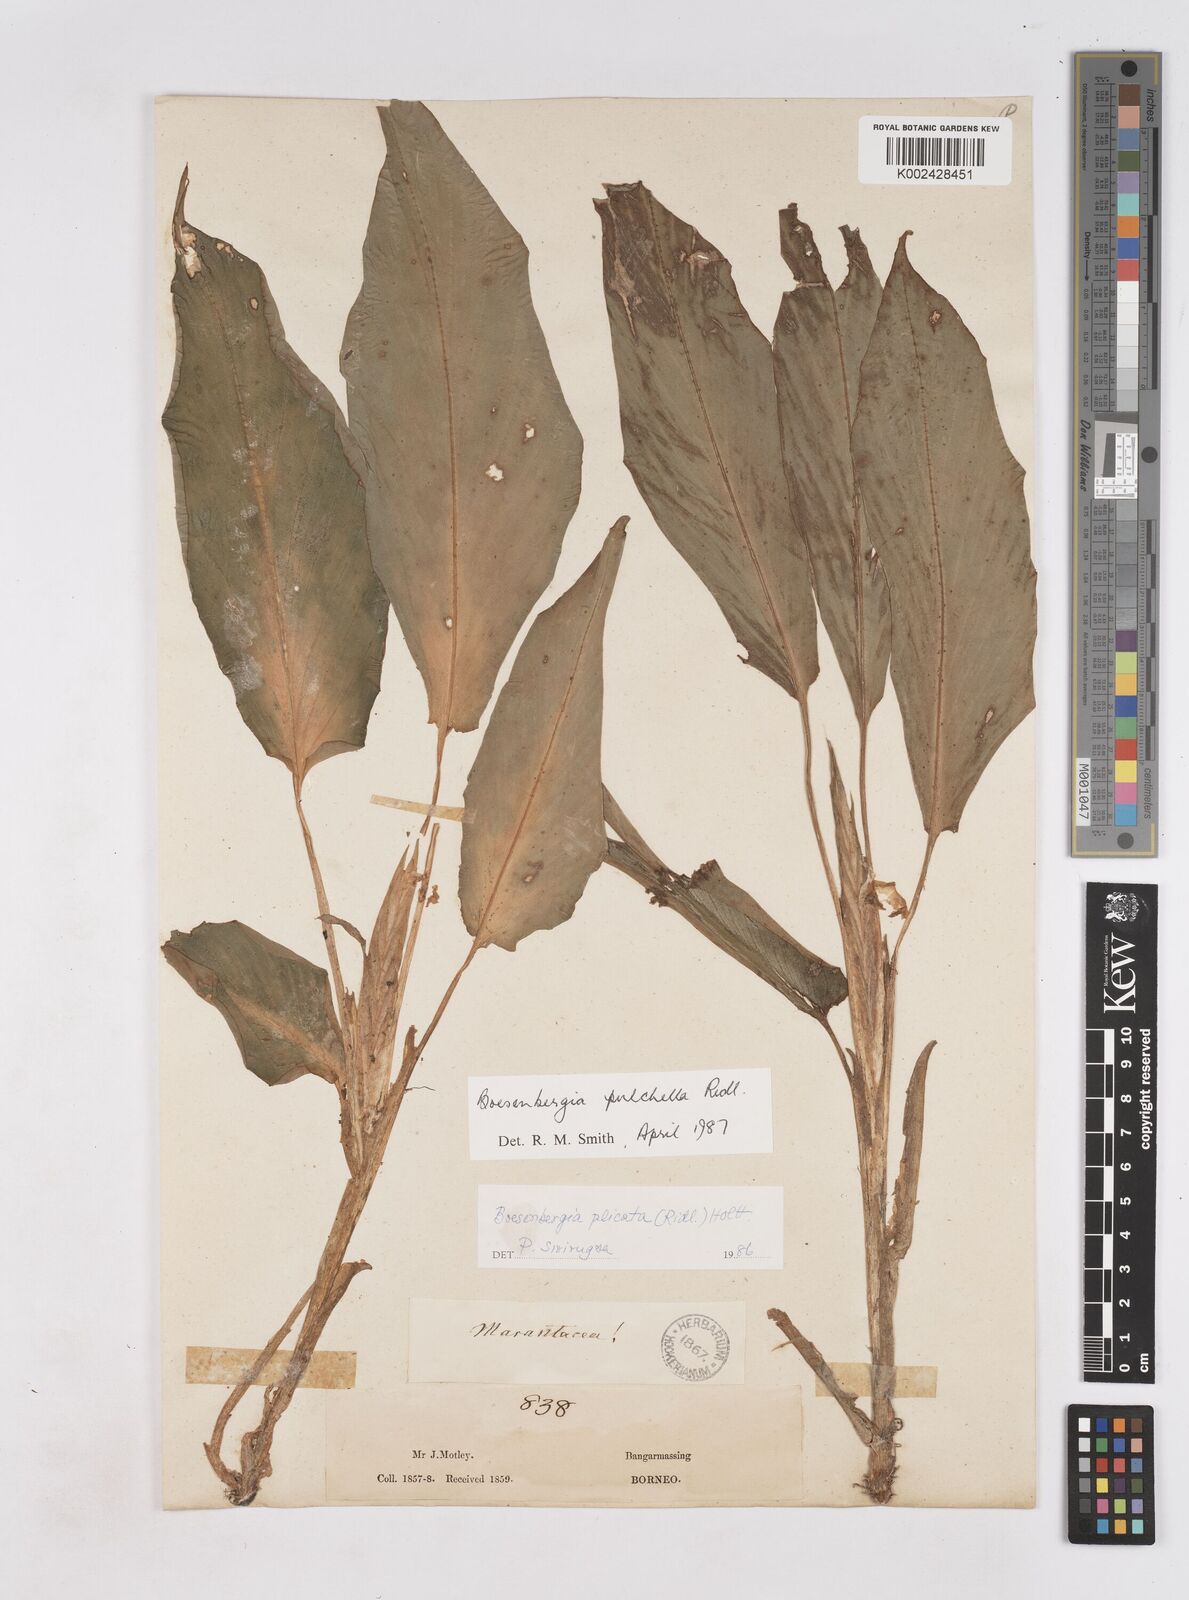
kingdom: Plantae
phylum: Tracheophyta
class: Liliopsida
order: Zingiberales
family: Zingiberaceae
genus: Boesenbergia
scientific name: Boesenbergia pulchella
